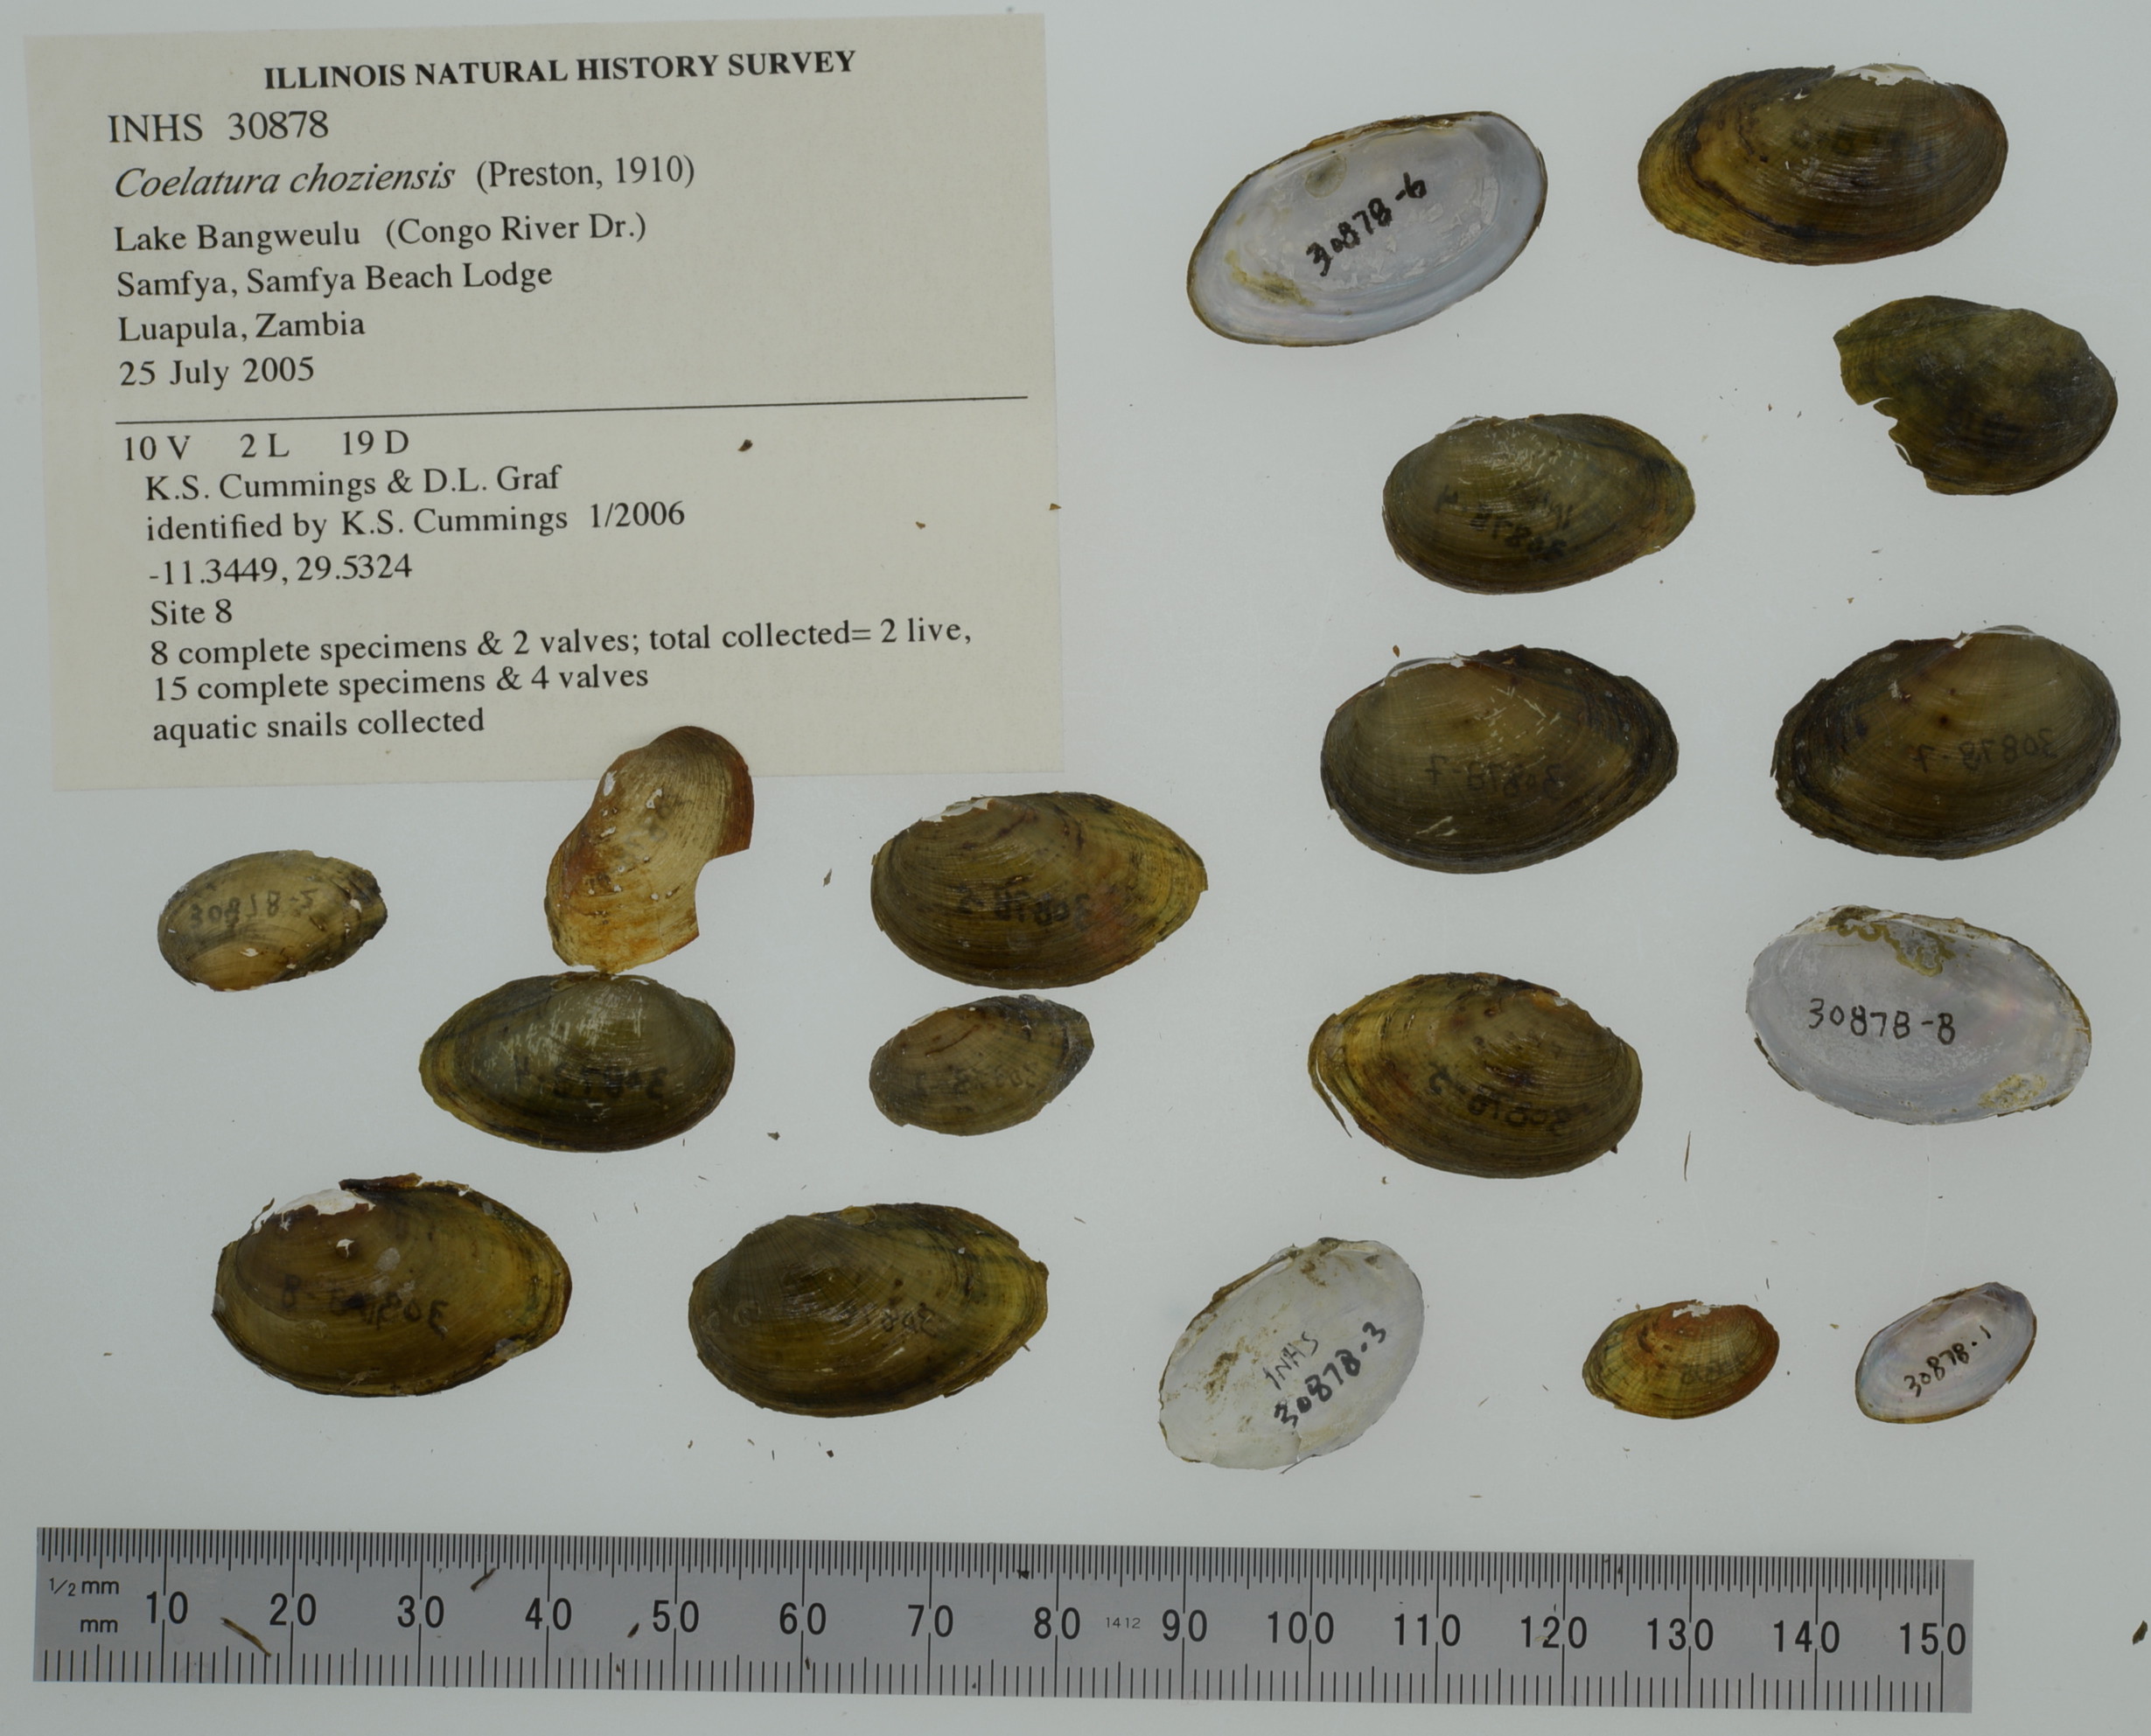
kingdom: Animalia
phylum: Mollusca
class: Bivalvia
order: Unionida
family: Unionidae
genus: Coelatura
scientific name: Coelatura choziensis
